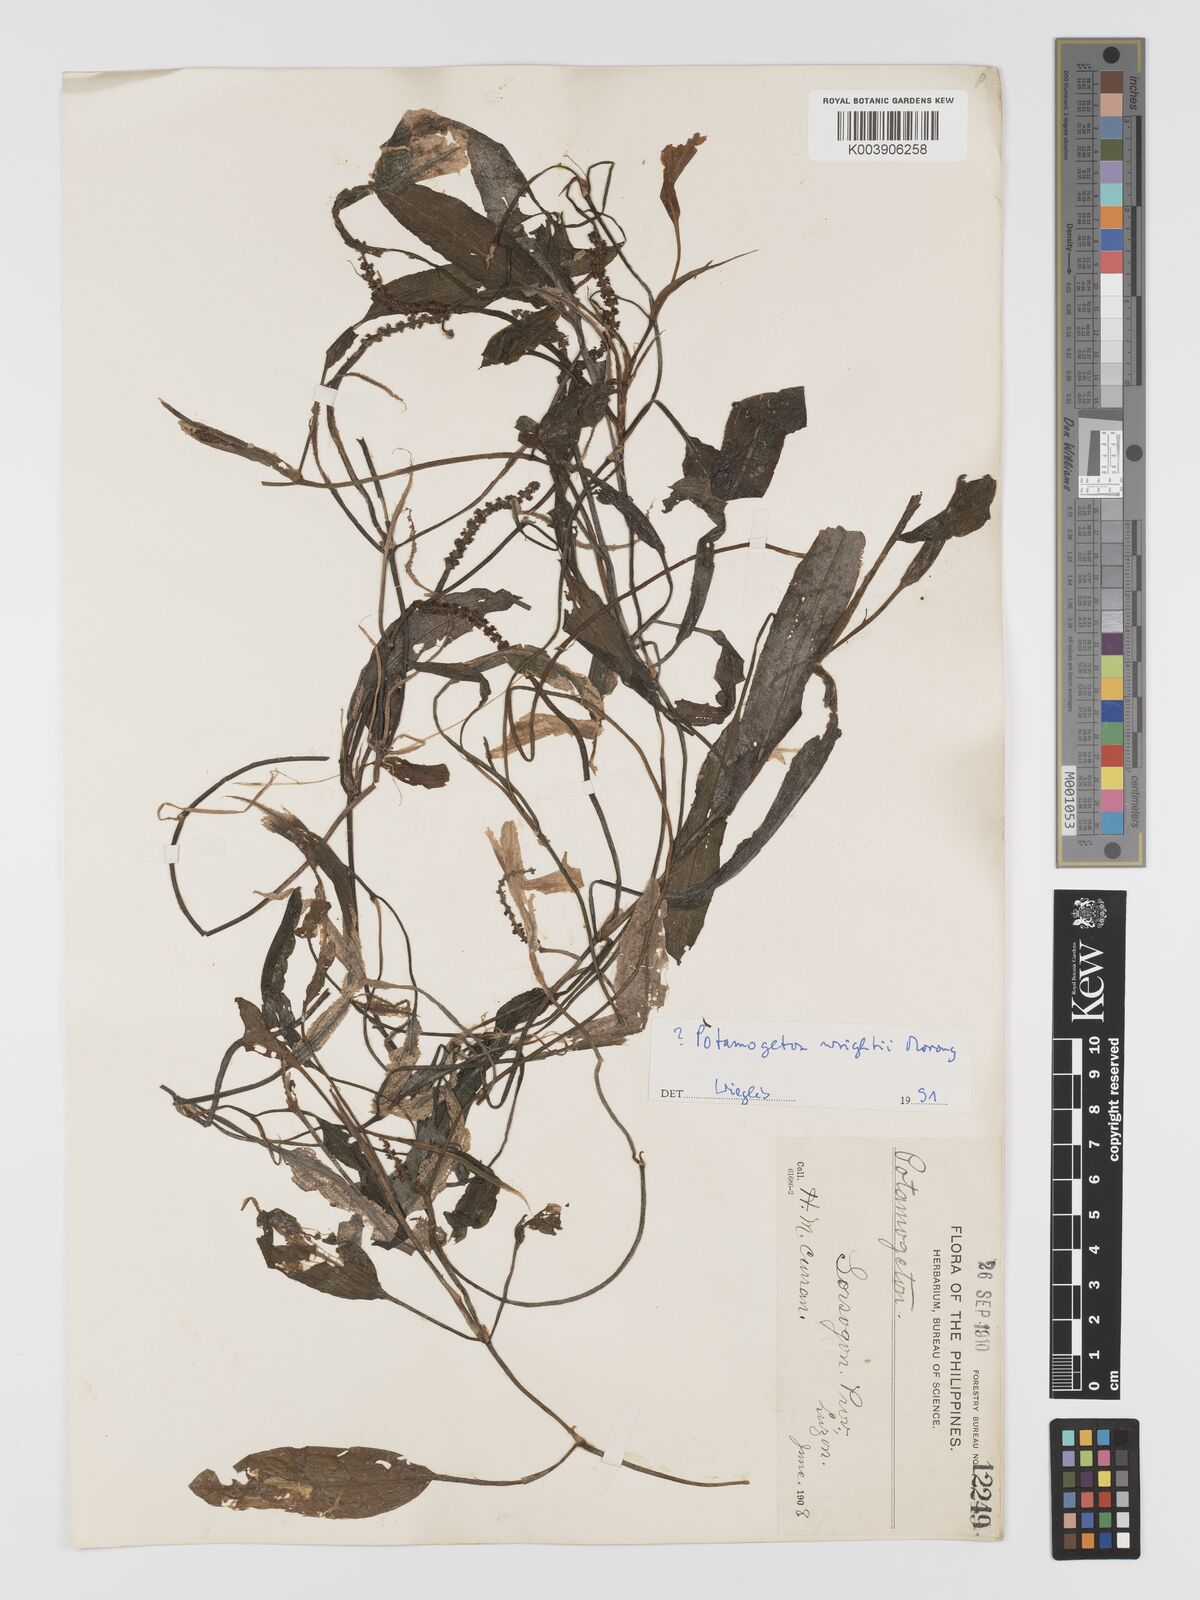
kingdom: Plantae
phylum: Tracheophyta
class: Liliopsida
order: Alismatales
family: Potamogetonaceae
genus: Potamogeton
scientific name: Potamogeton wrightii
